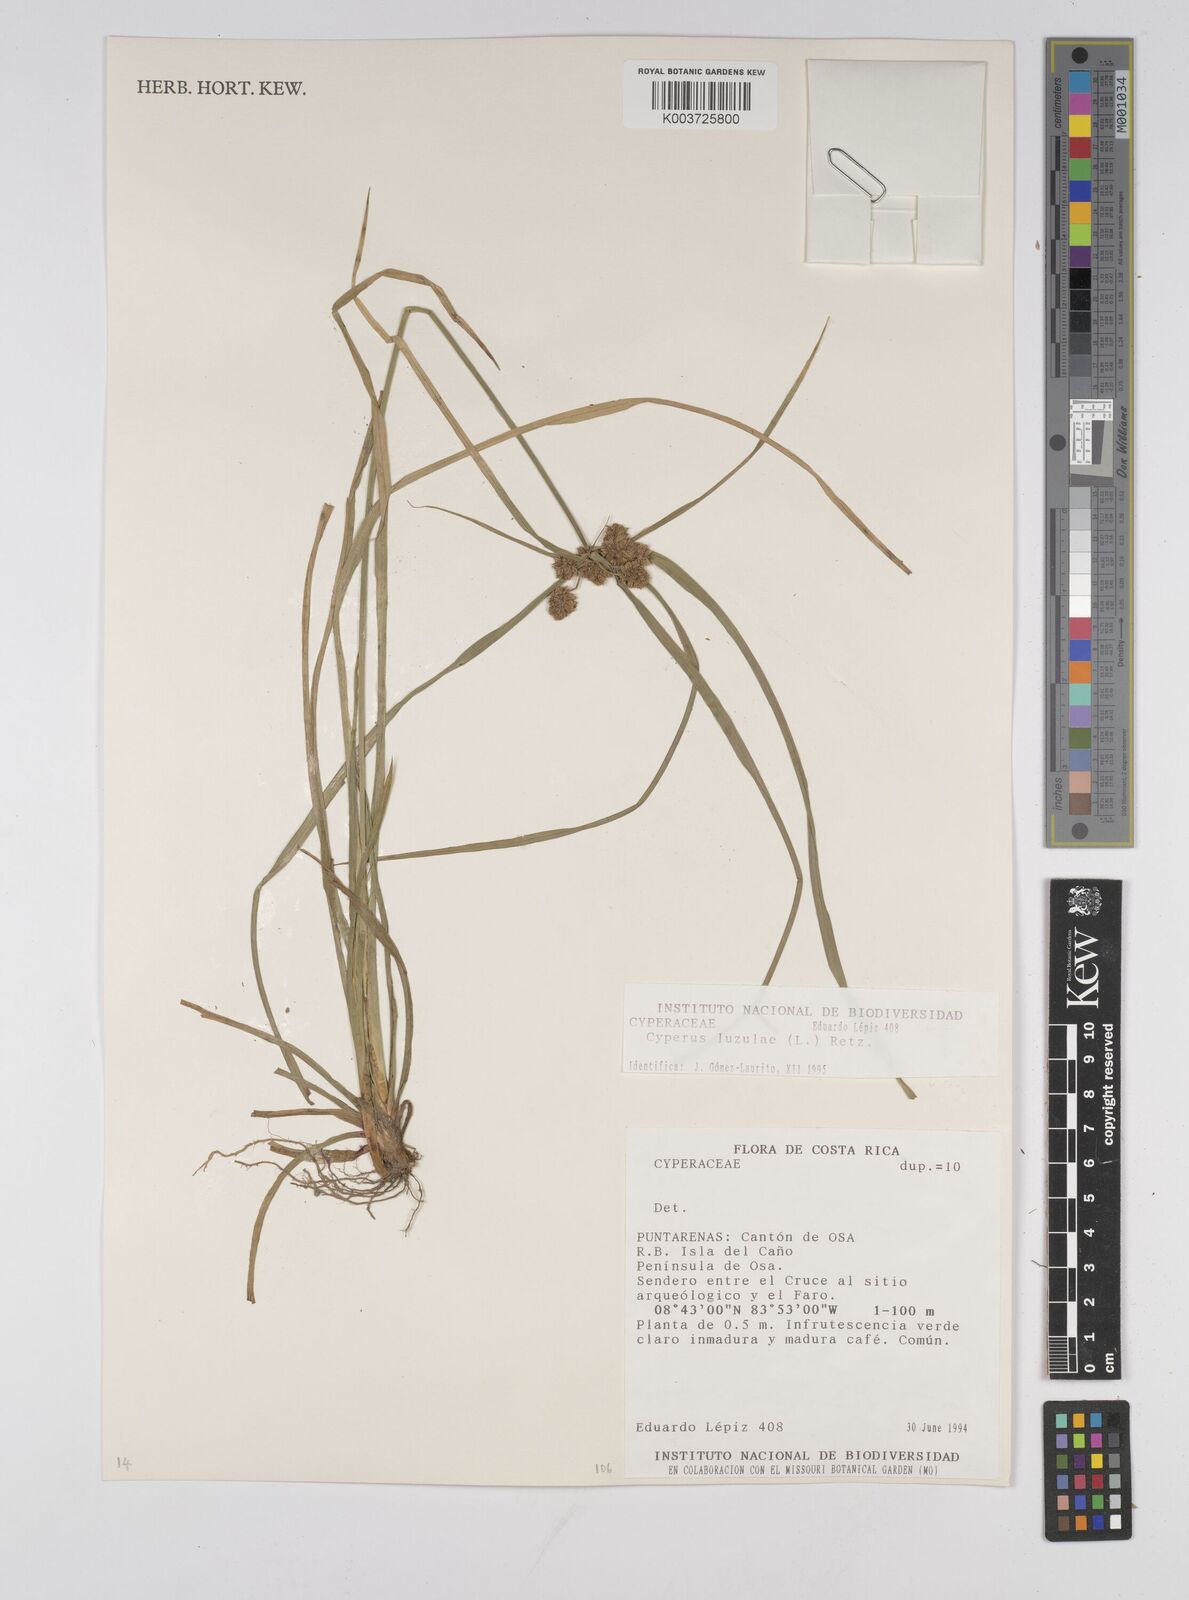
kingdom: Plantae
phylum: Tracheophyta
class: Liliopsida
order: Poales
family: Cyperaceae
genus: Cyperus
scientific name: Cyperus luzulae
